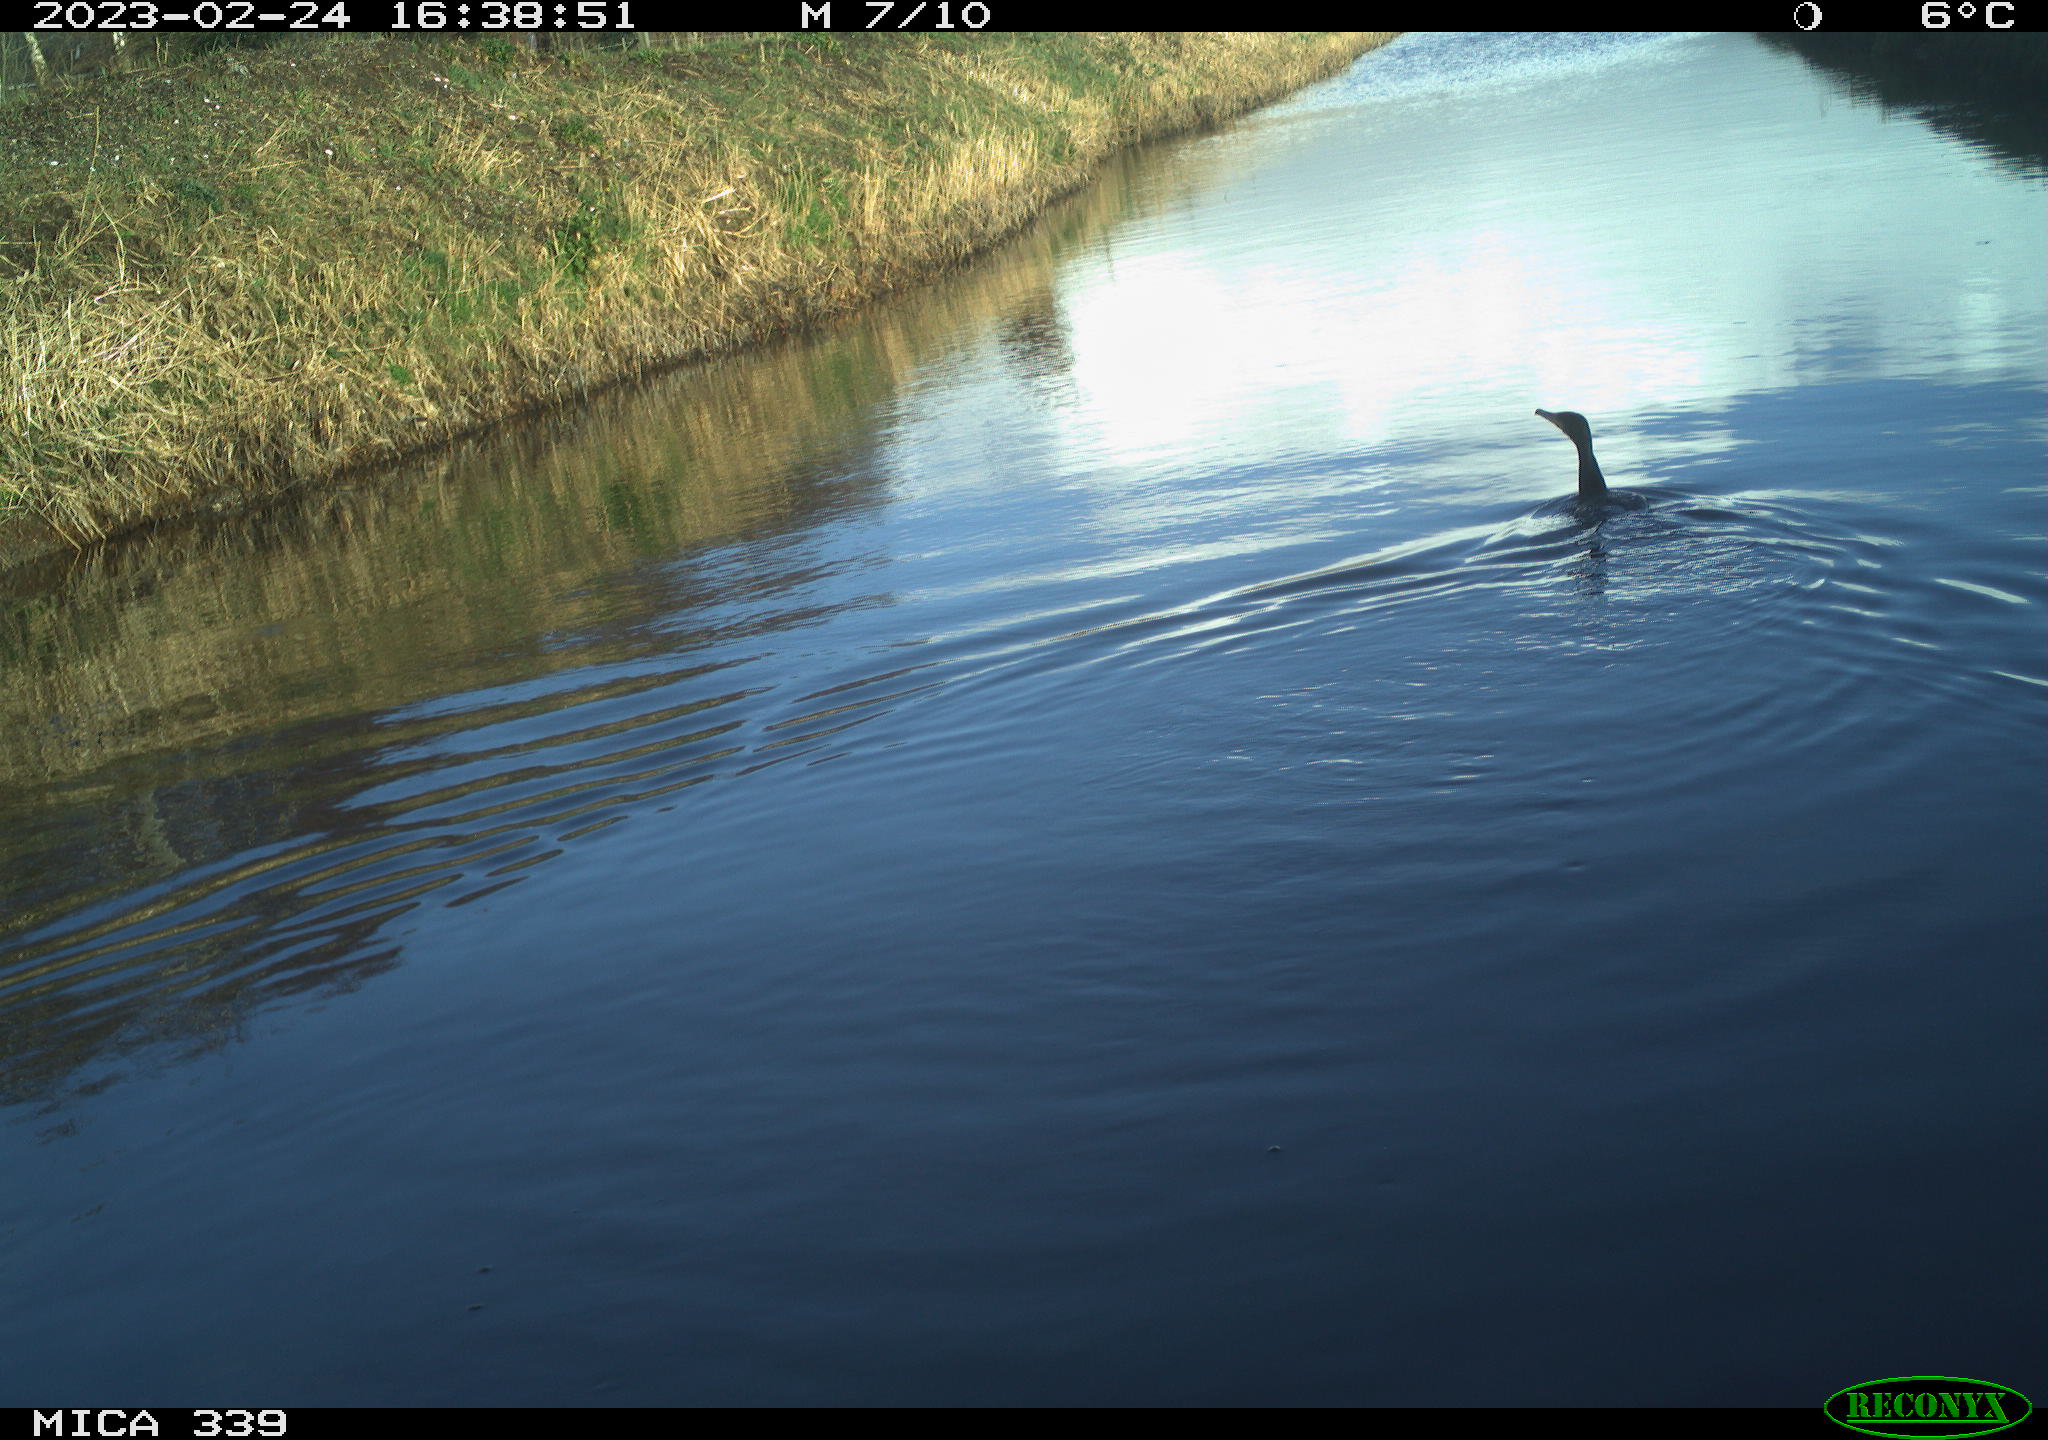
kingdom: Animalia
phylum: Chordata
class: Aves
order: Suliformes
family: Phalacrocoracidae
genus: Phalacrocorax
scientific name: Phalacrocorax carbo
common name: Great cormorant
